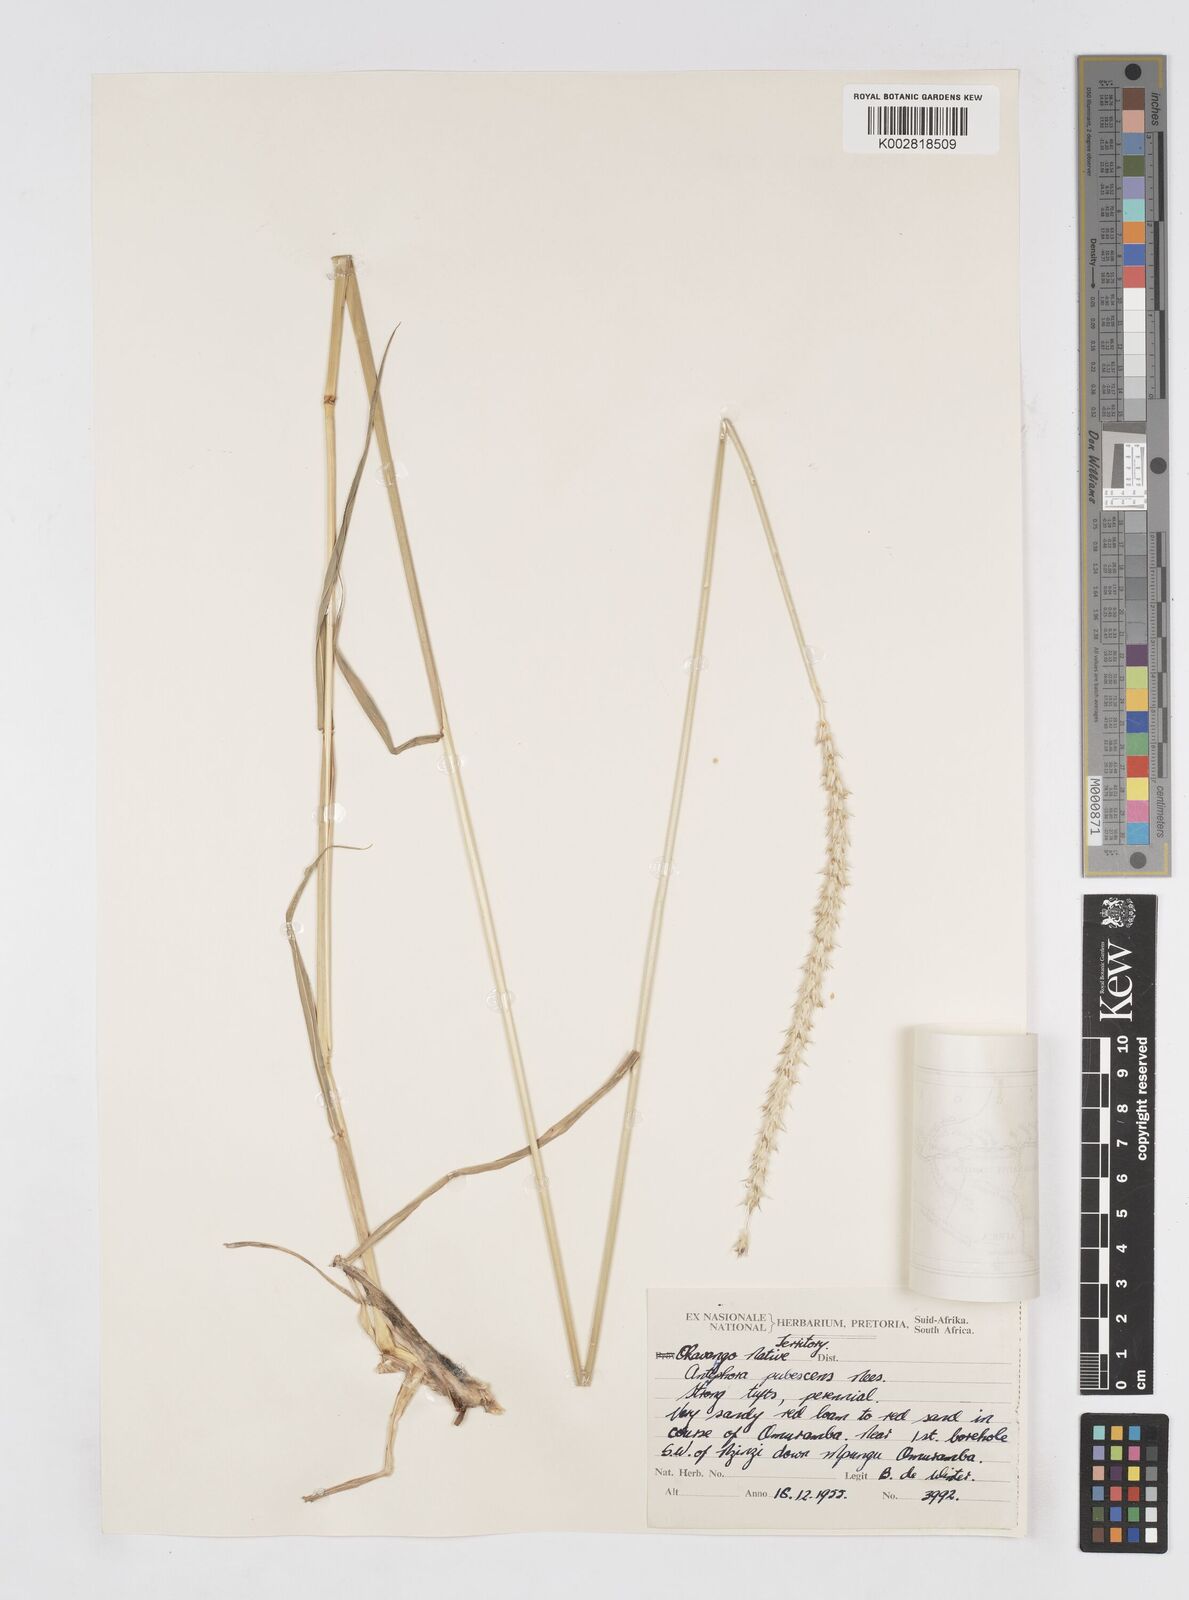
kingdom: Plantae
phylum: Tracheophyta
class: Liliopsida
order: Poales
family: Poaceae
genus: Anthephora
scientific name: Anthephora pubescens
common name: Wool grass
